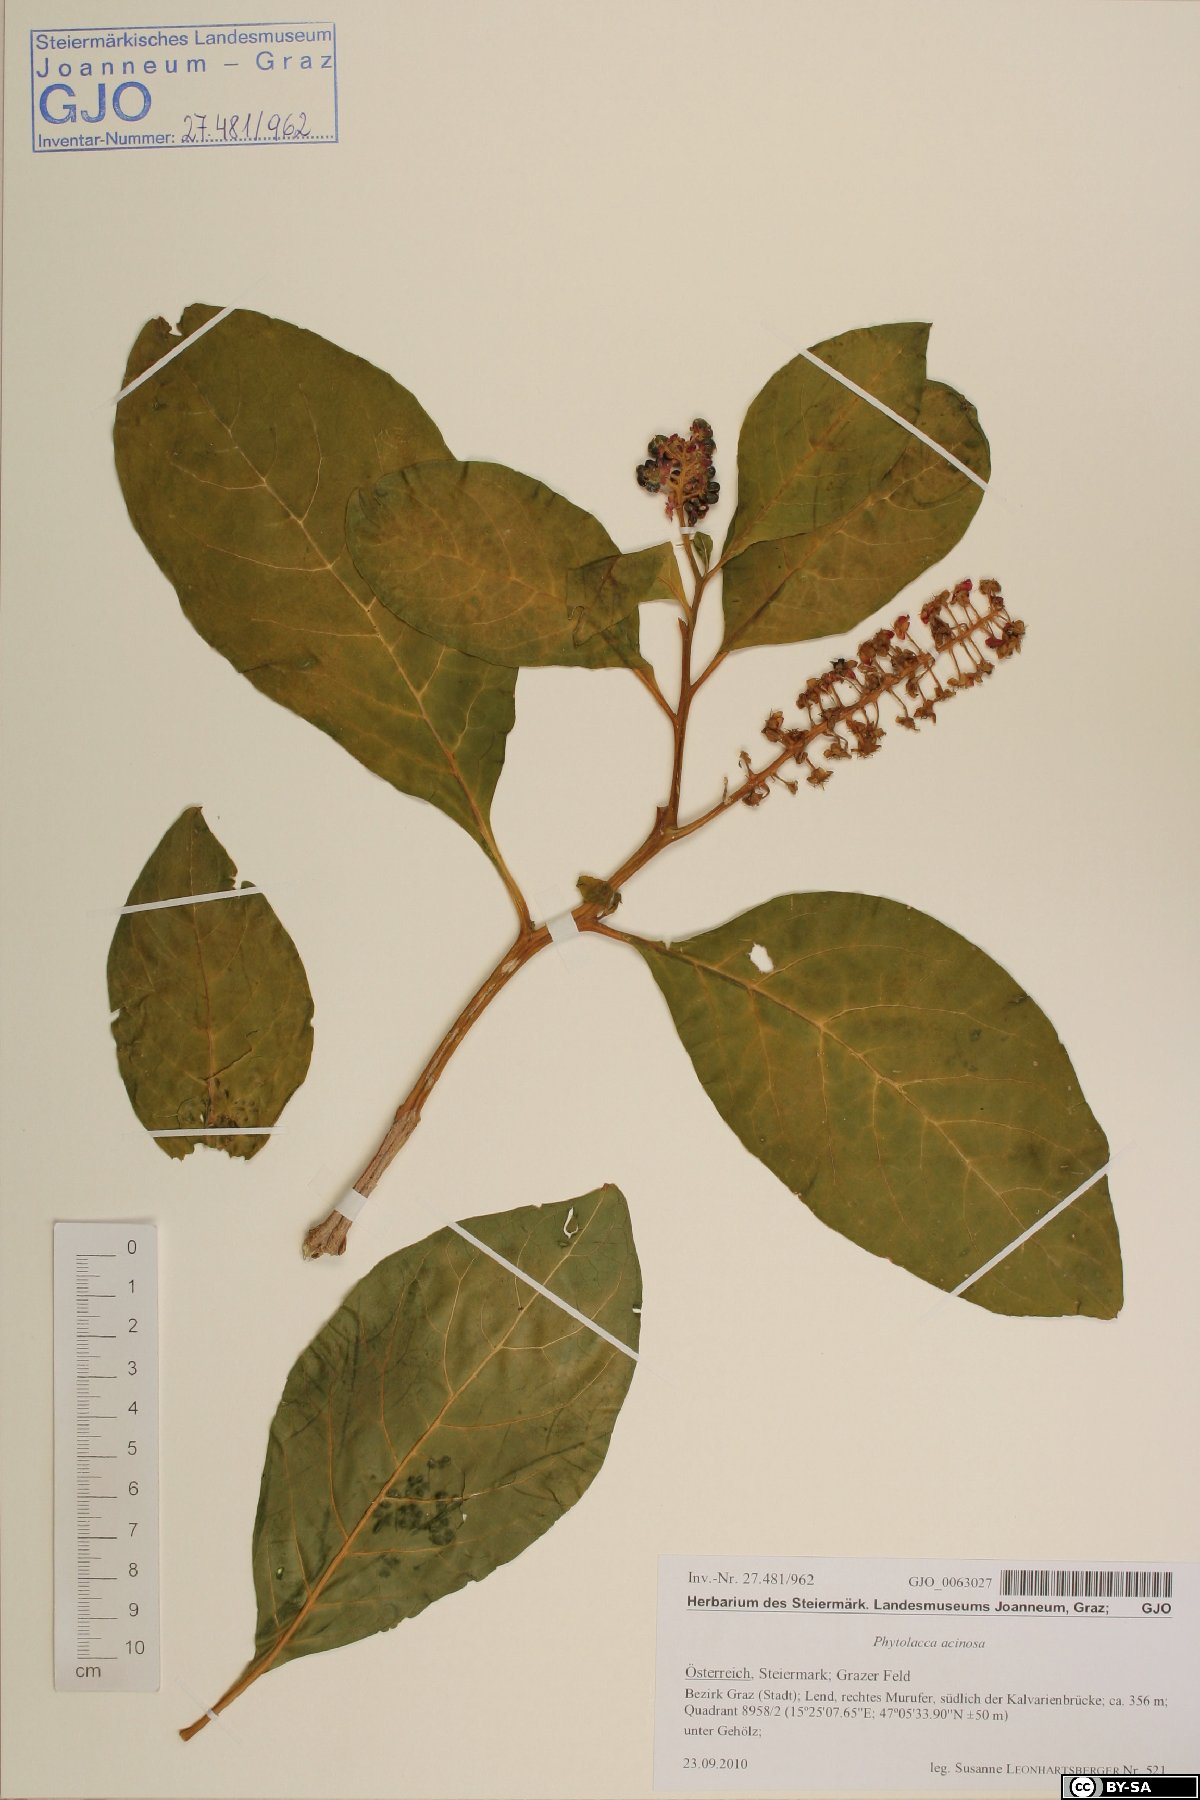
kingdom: Plantae
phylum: Tracheophyta
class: Magnoliopsida
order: Caryophyllales
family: Phytolaccaceae
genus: Phytolacca
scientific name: Phytolacca acinosa
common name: Indian pokeweed
